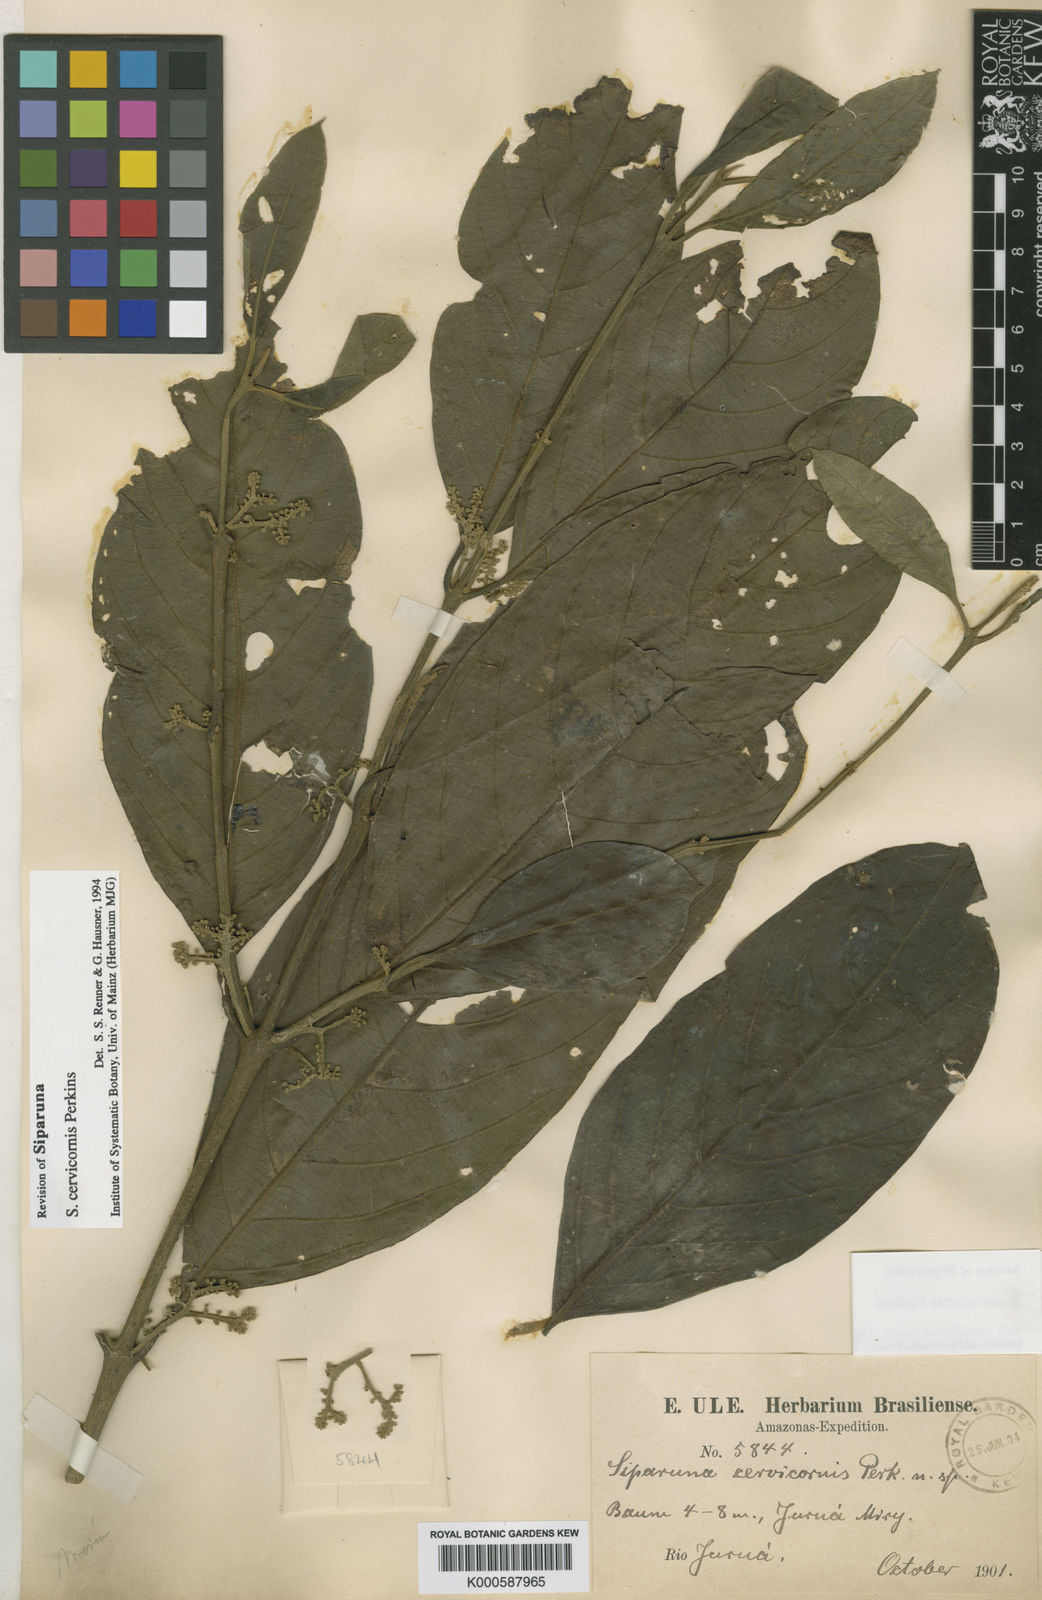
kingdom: Plantae
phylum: Tracheophyta
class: Magnoliopsida
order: Laurales
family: Siparunaceae
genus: Siparuna
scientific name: Siparuna cervicornis
